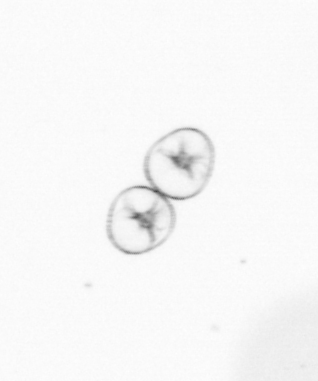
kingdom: Chromista
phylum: Myzozoa
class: Dinophyceae
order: Noctilucales
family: Noctilucaceae
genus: Noctiluca
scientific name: Noctiluca scintillans
